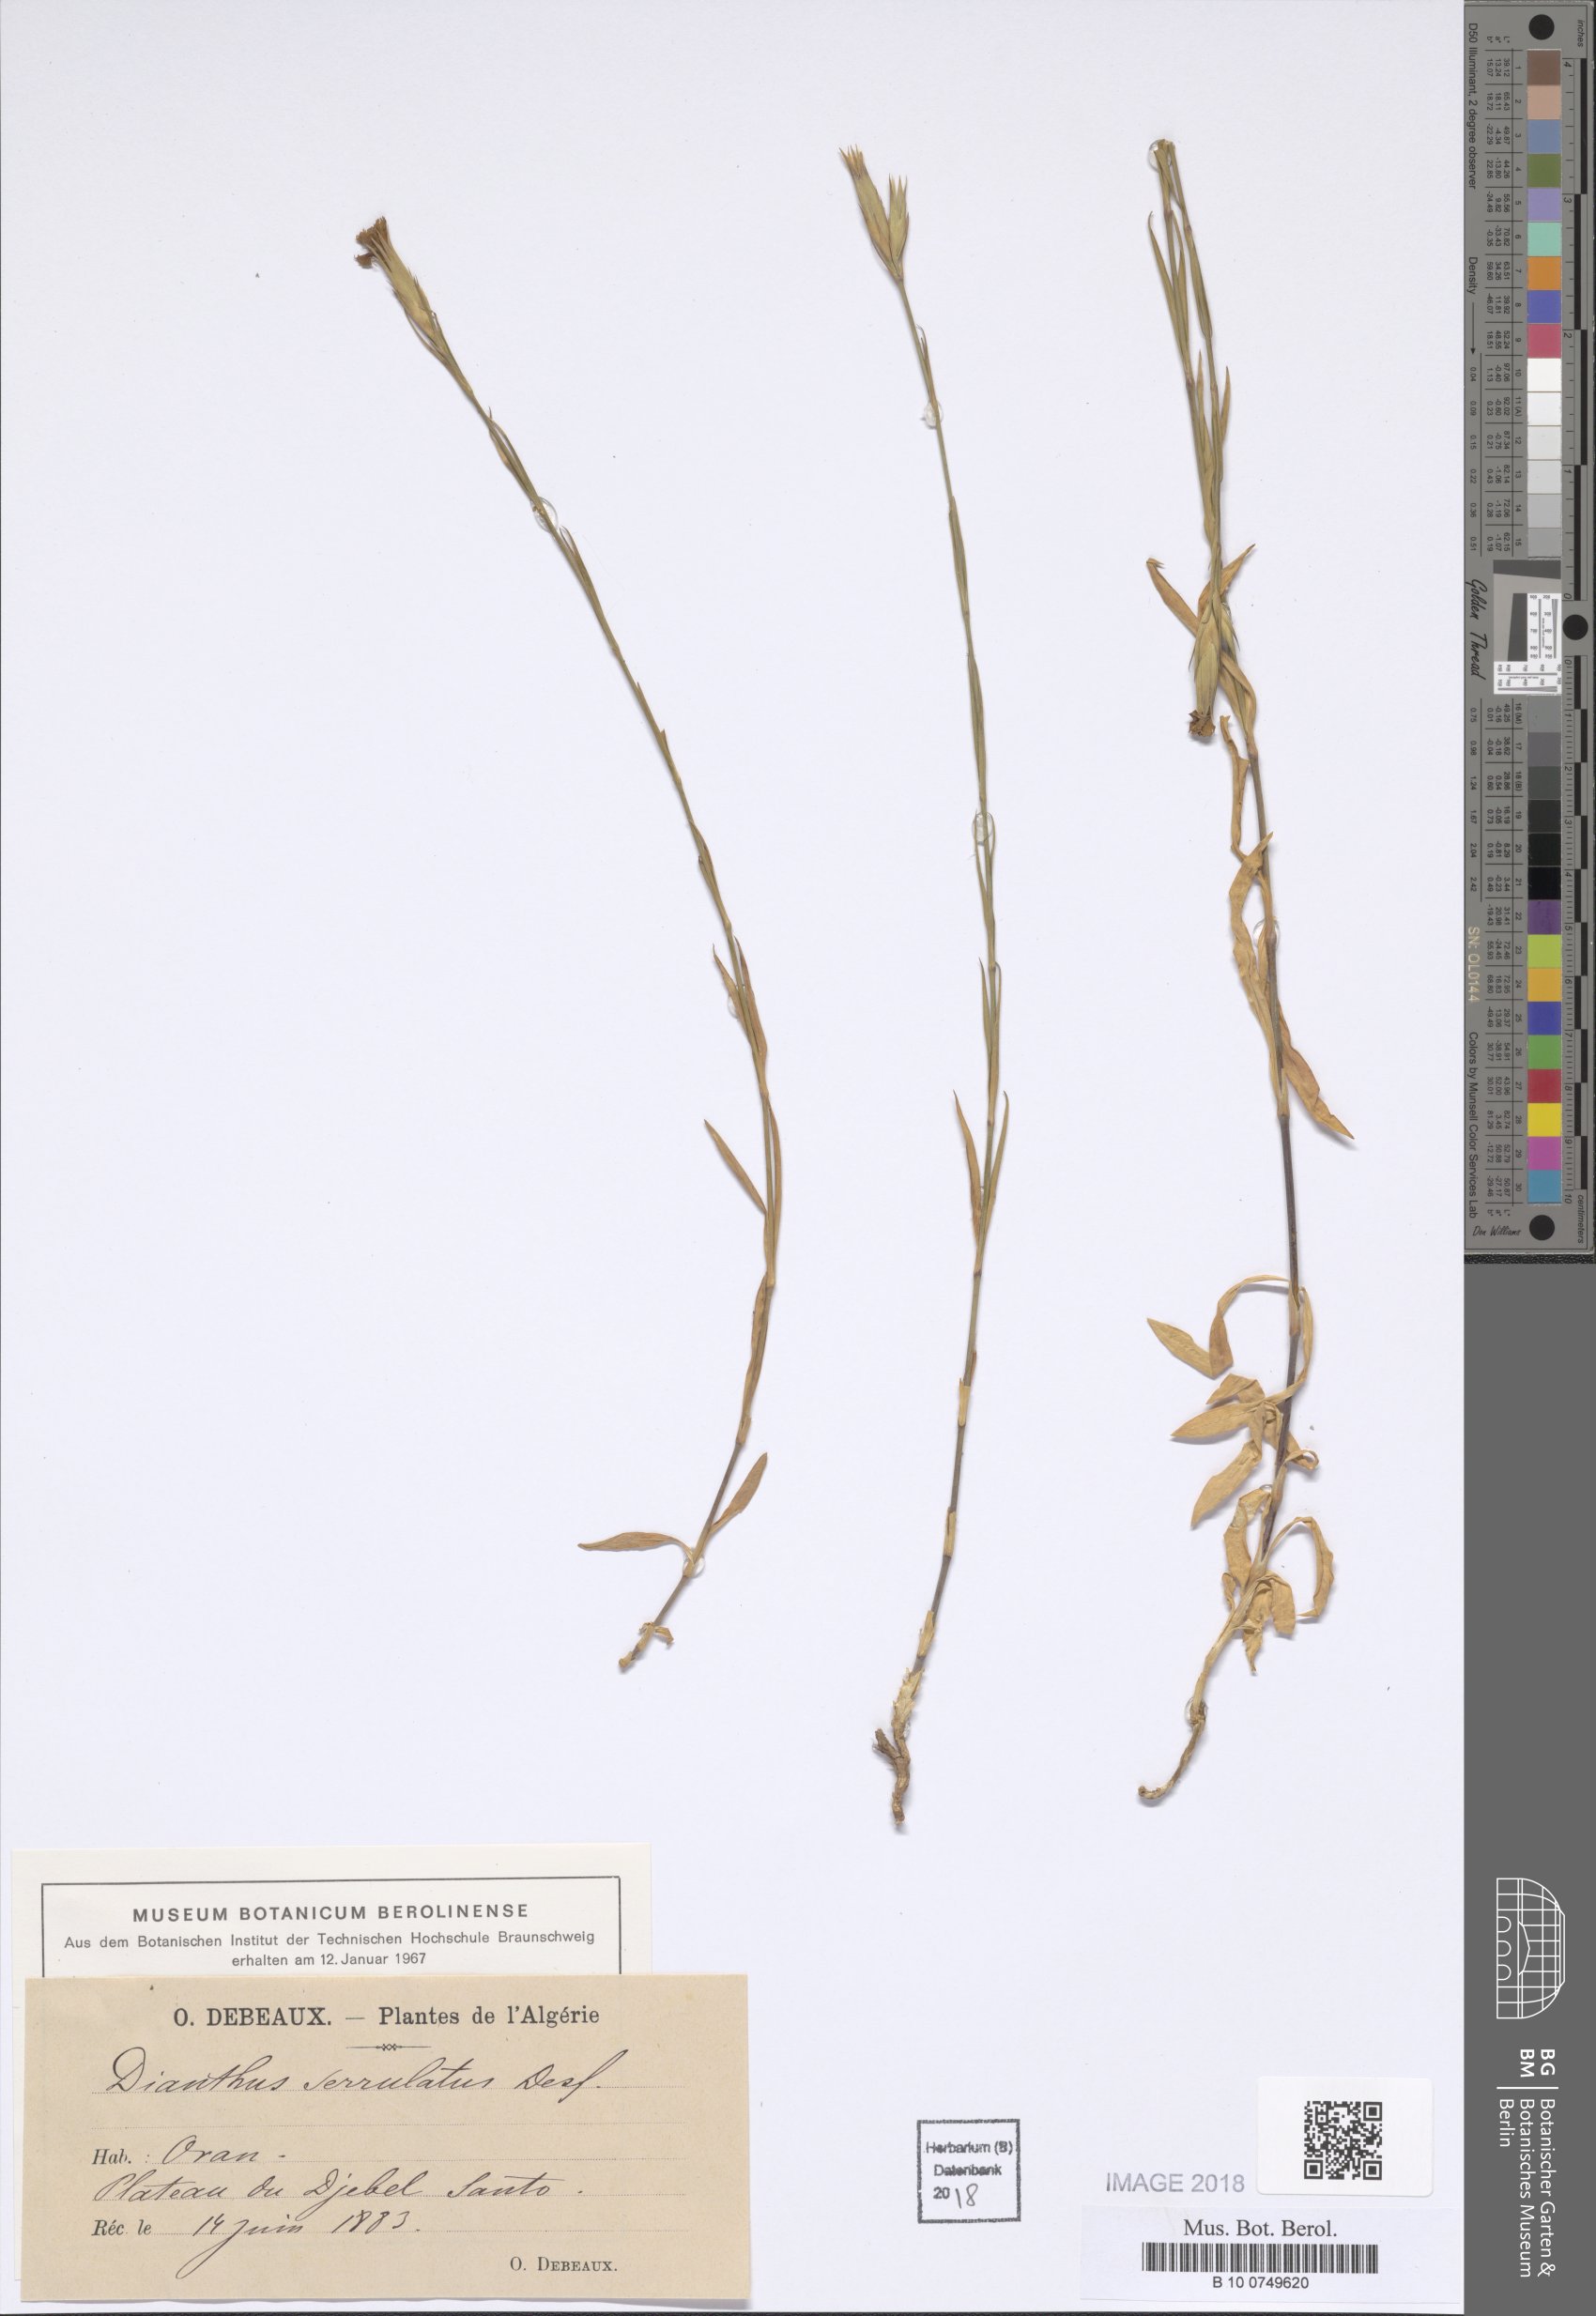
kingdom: Plantae
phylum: Tracheophyta
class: Magnoliopsida
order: Caryophyllales
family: Caryophyllaceae
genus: Dianthus
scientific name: Dianthus serrulatus
